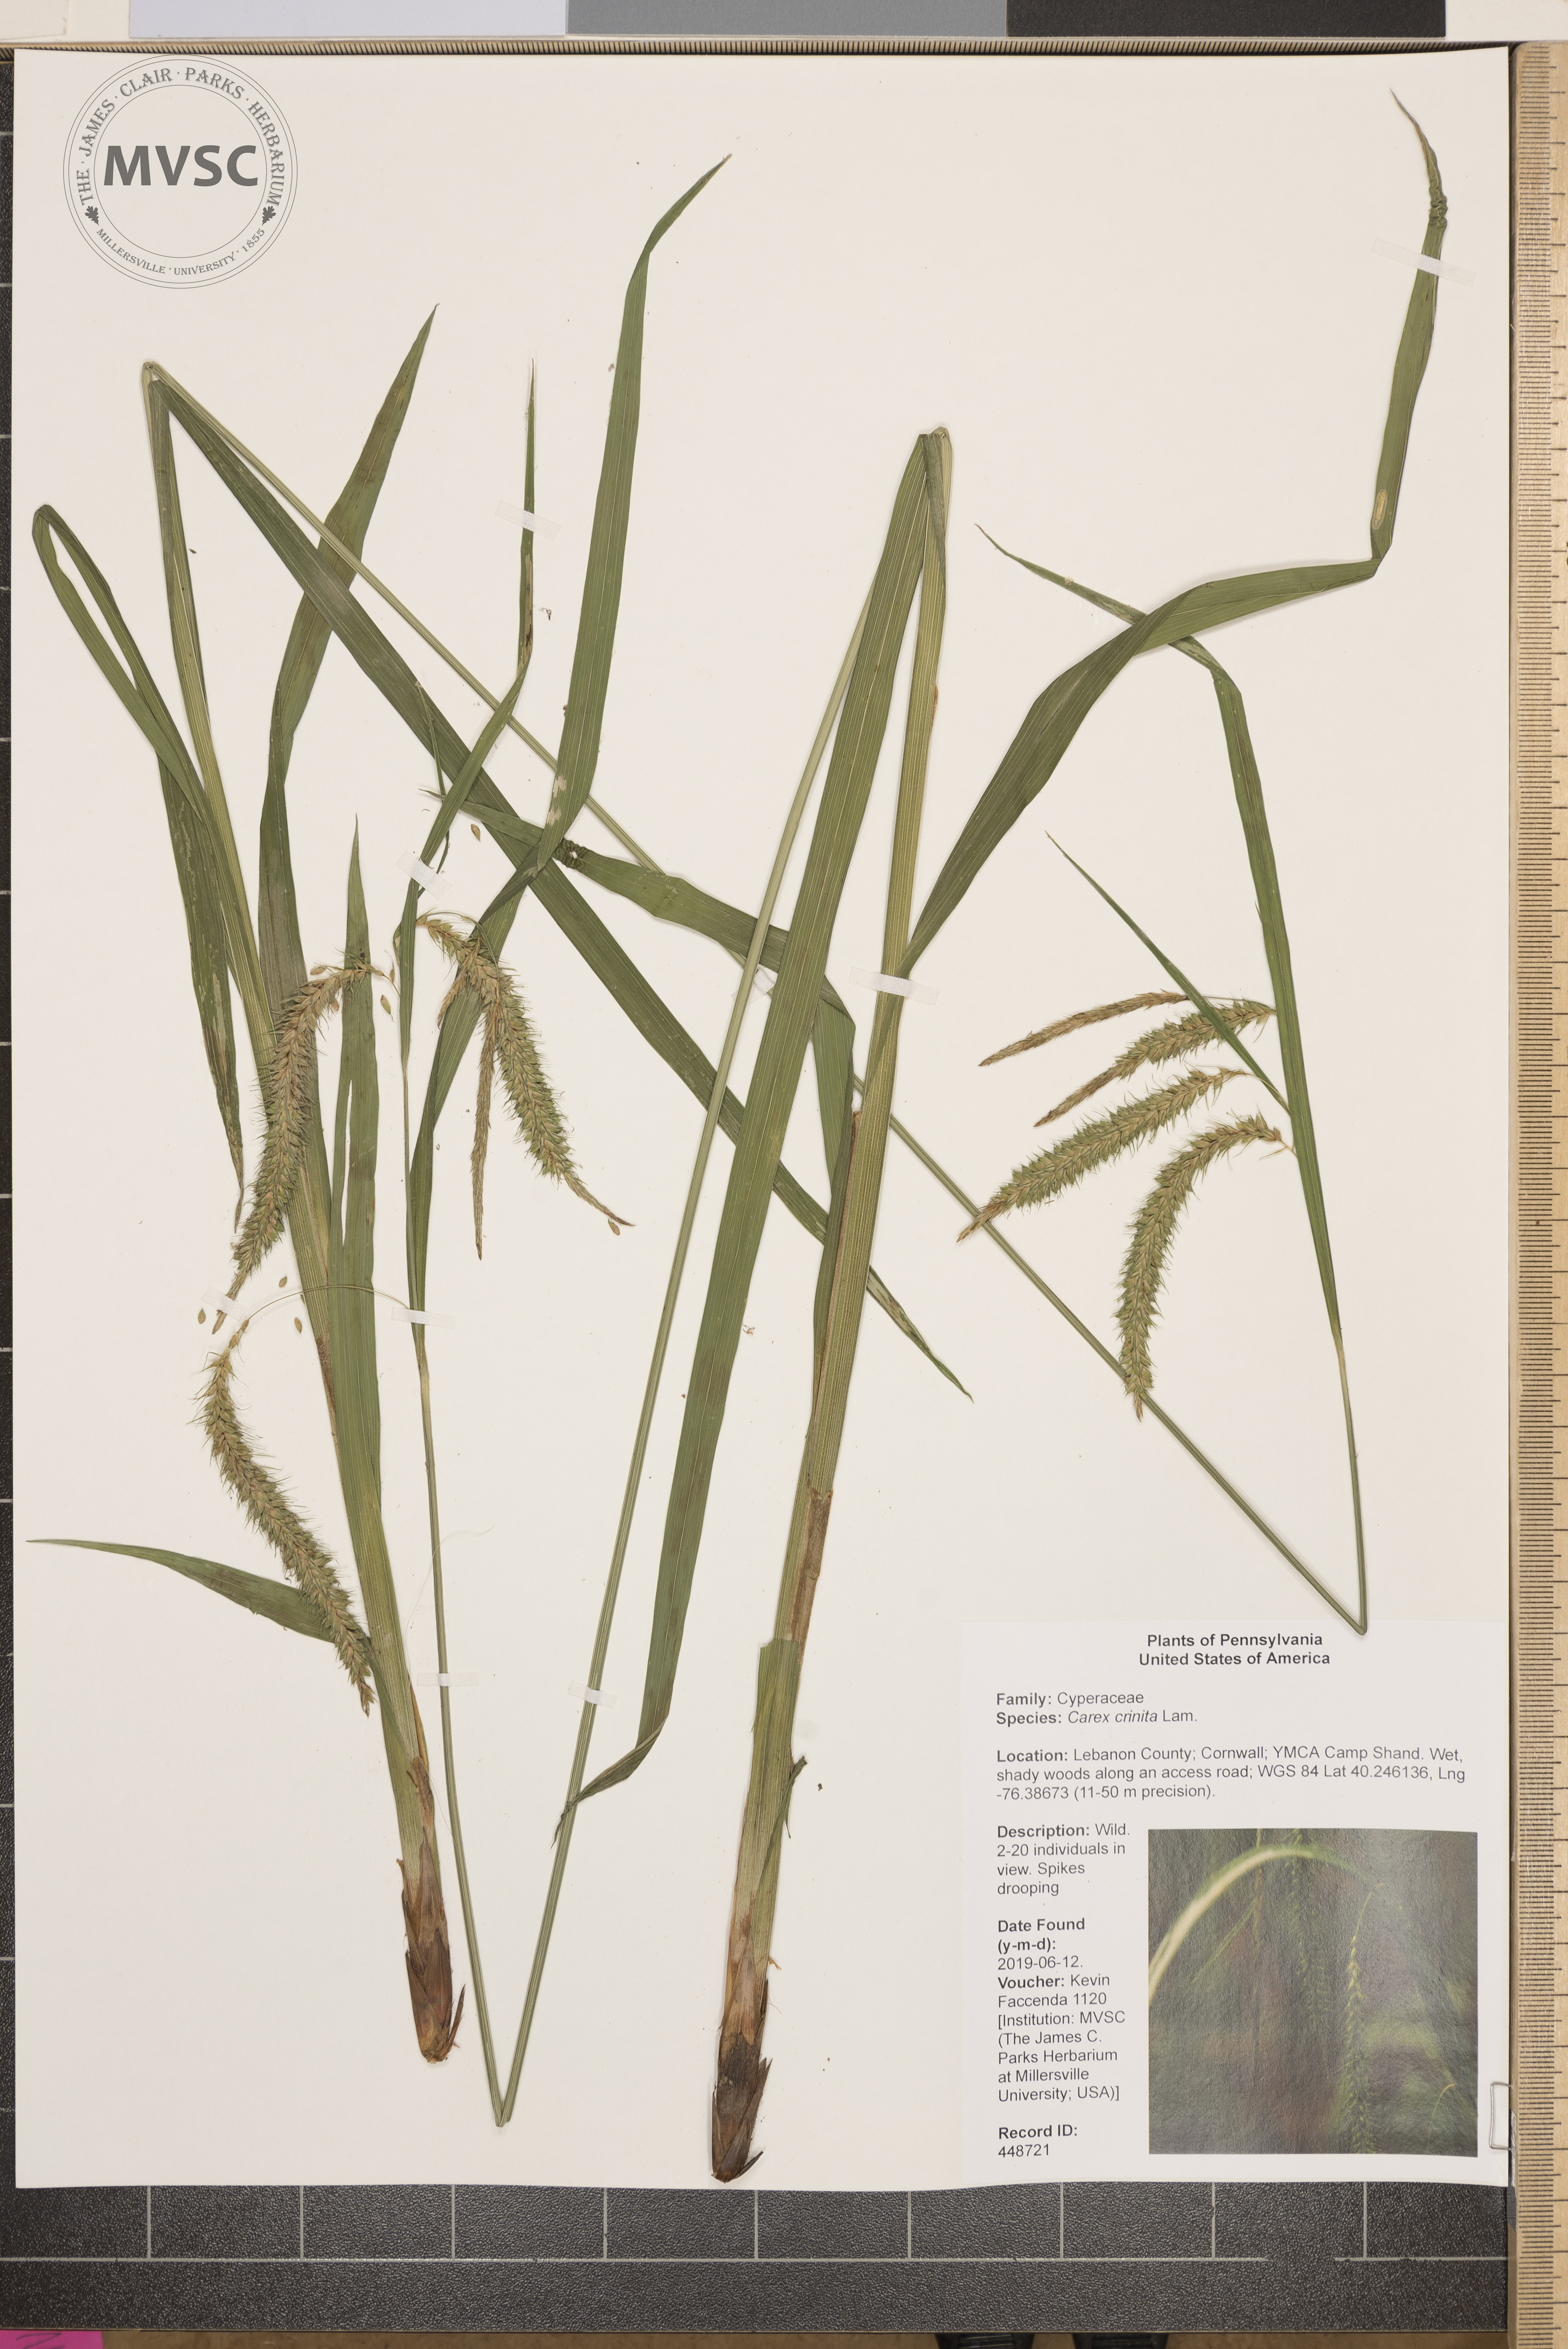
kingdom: Plantae
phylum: Tracheophyta
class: Liliopsida
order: Poales
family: Cyperaceae
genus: Carex
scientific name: Carex gynandra
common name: Nodding sedge
